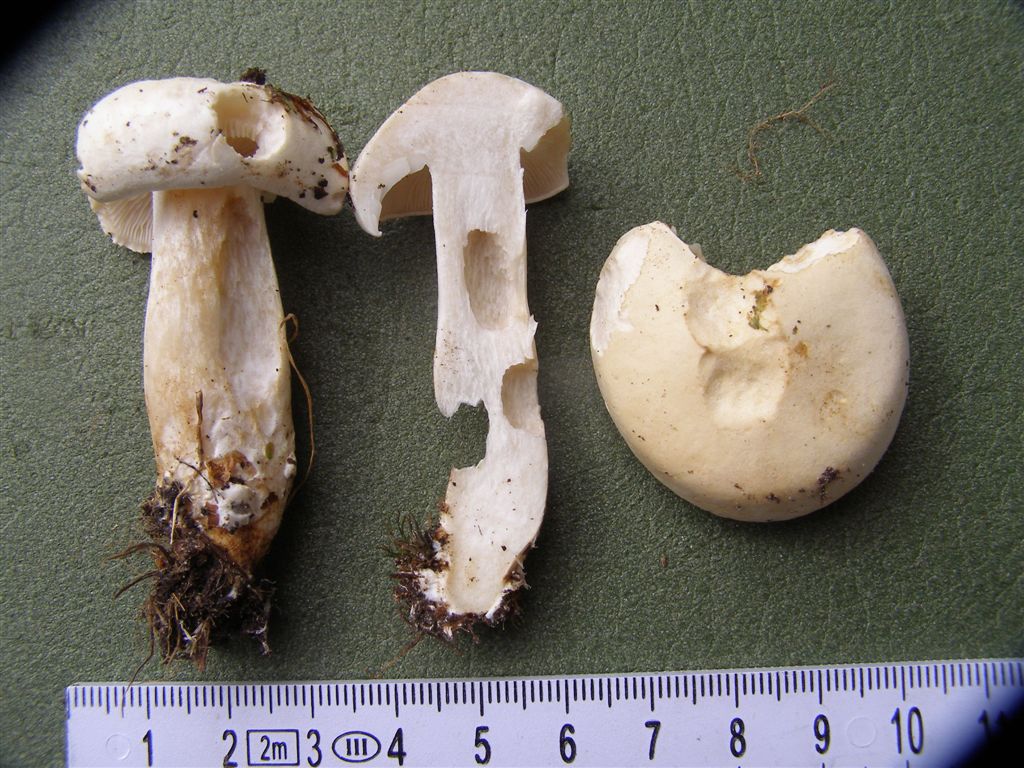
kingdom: Fungi
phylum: Basidiomycota
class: Agaricomycetes
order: Agaricales
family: Tricholomataceae
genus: Tricholoma
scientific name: Tricholoma stiparophyllum
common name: hvid ridderhat
